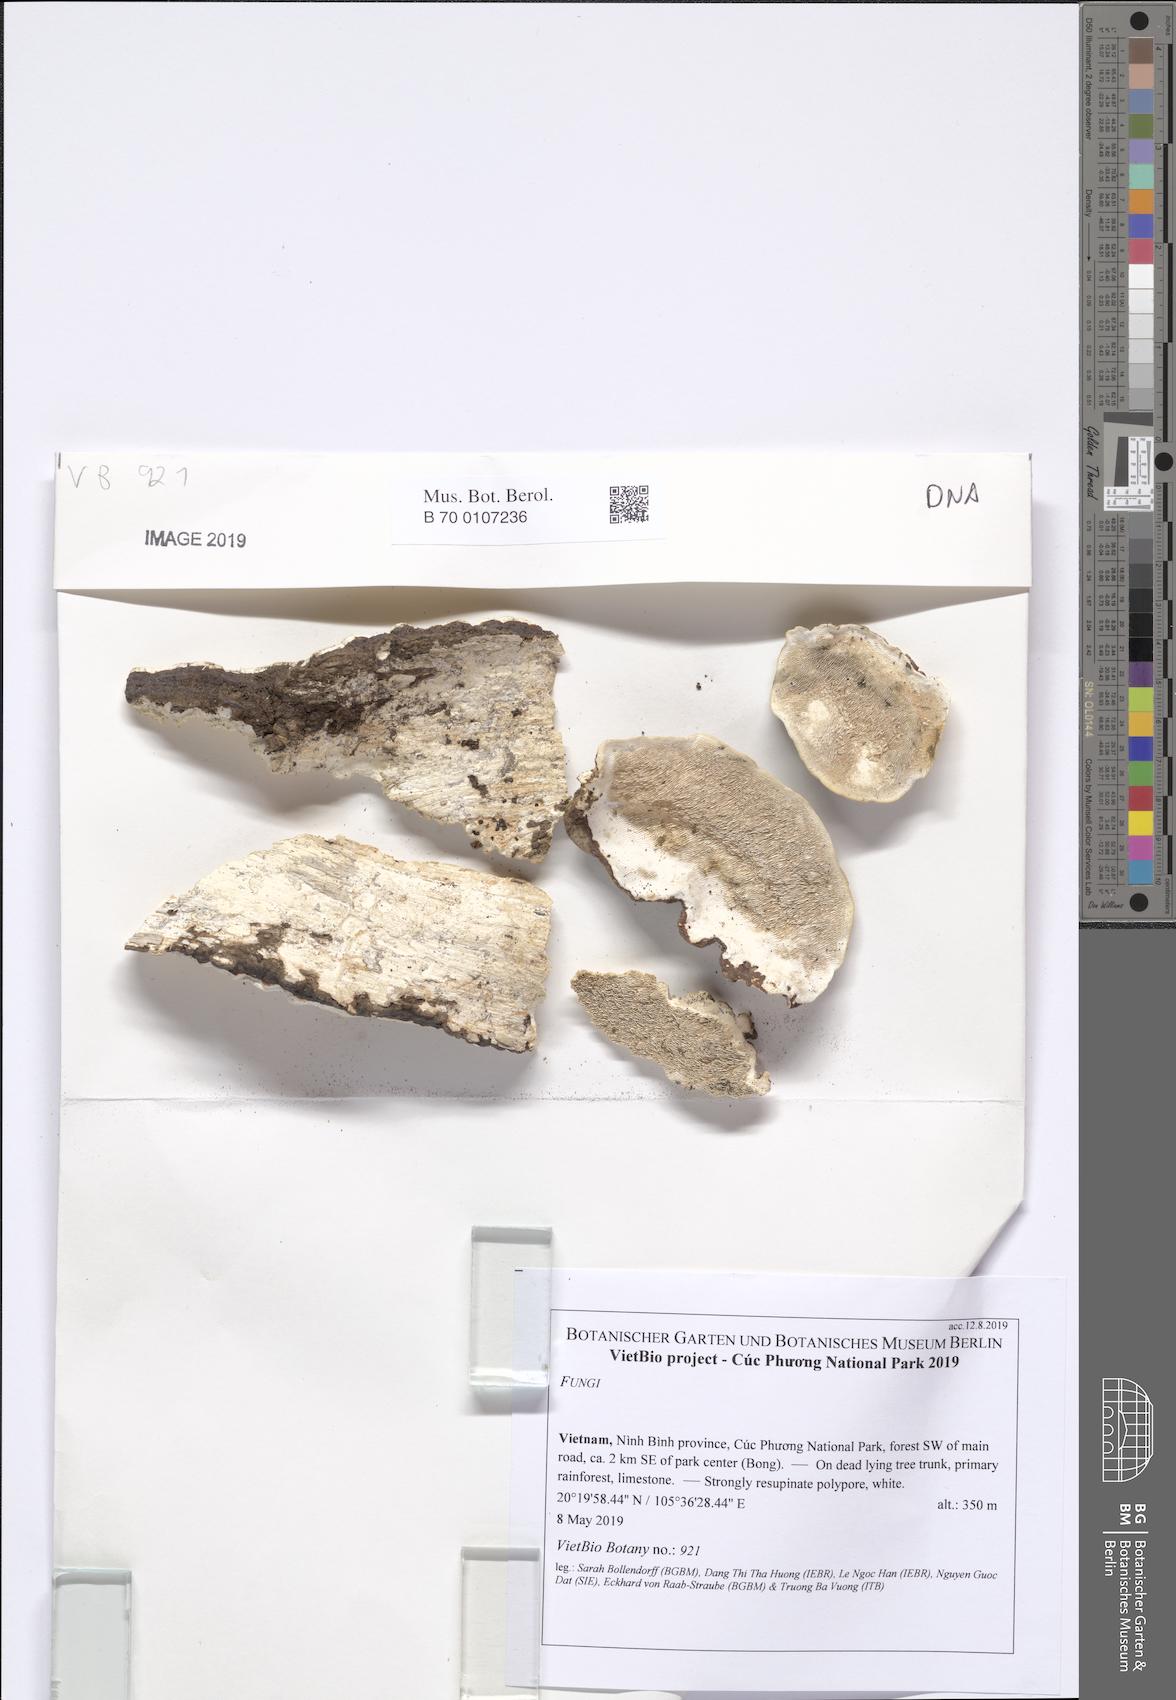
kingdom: Fungi
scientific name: Fungi
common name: Fungi
